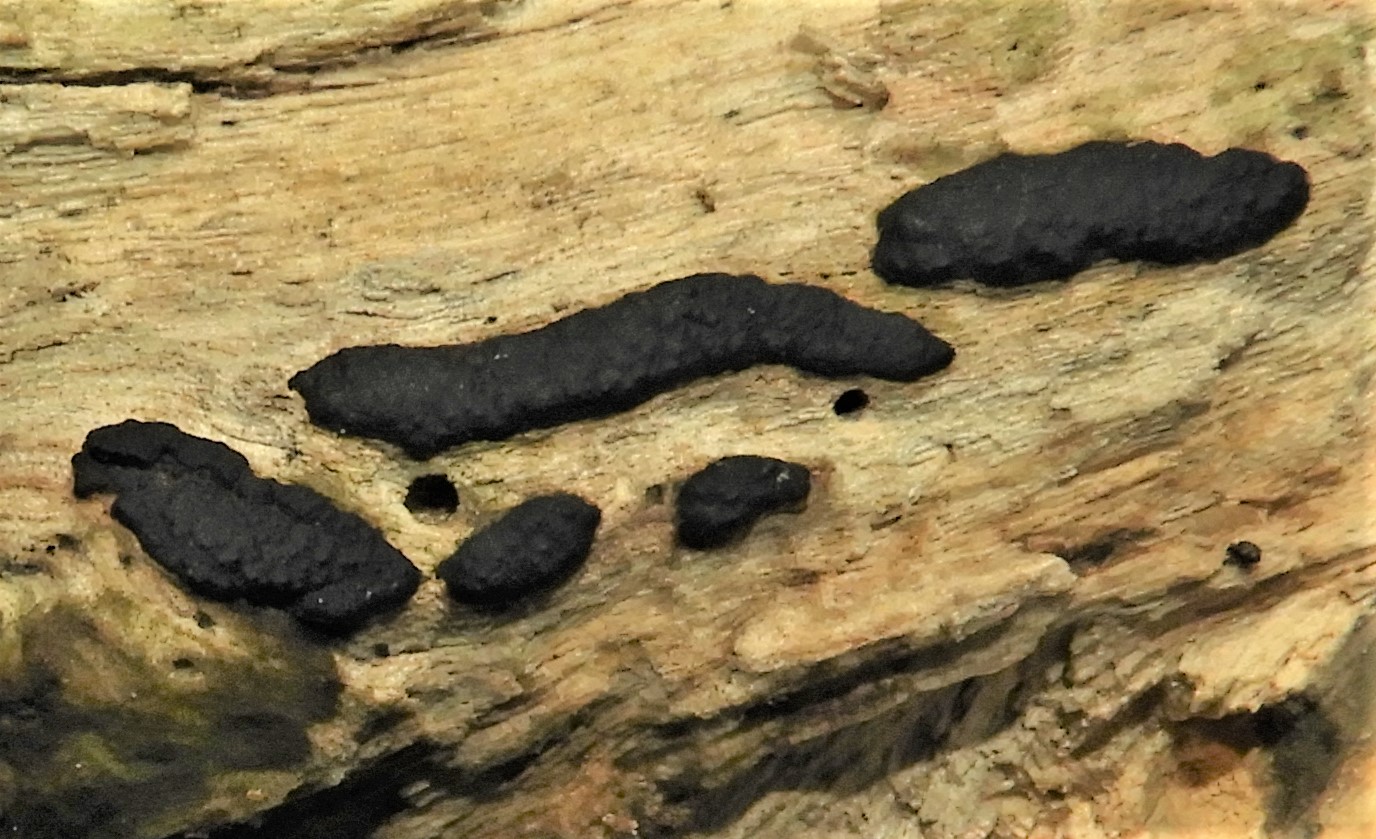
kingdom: Fungi
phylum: Ascomycota
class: Sordariomycetes
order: Xylariales
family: Xylariaceae
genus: Nemania
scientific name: Nemania
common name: kuldyne
